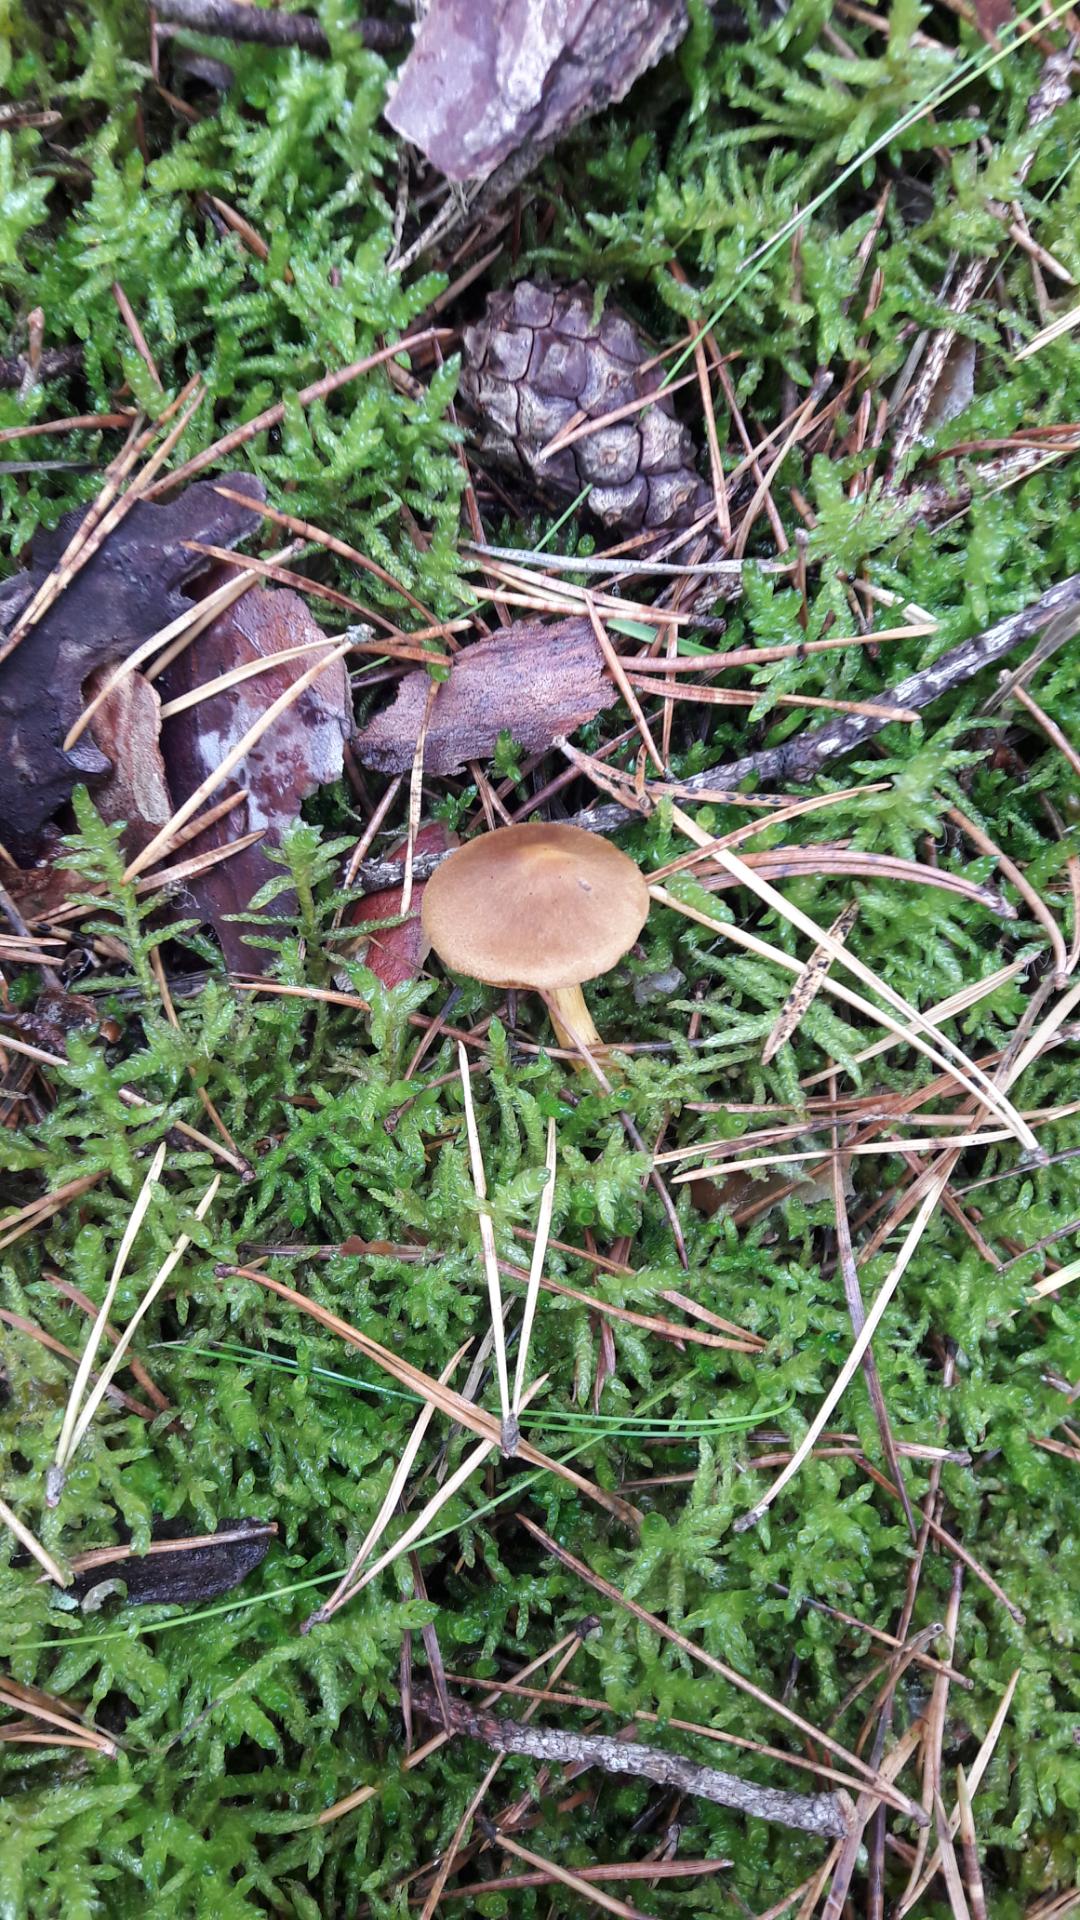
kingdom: Fungi
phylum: Basidiomycota
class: Agaricomycetes
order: Agaricales
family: Cortinariaceae
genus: Cortinarius
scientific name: Cortinarius
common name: cinnoberbladet slørhat
